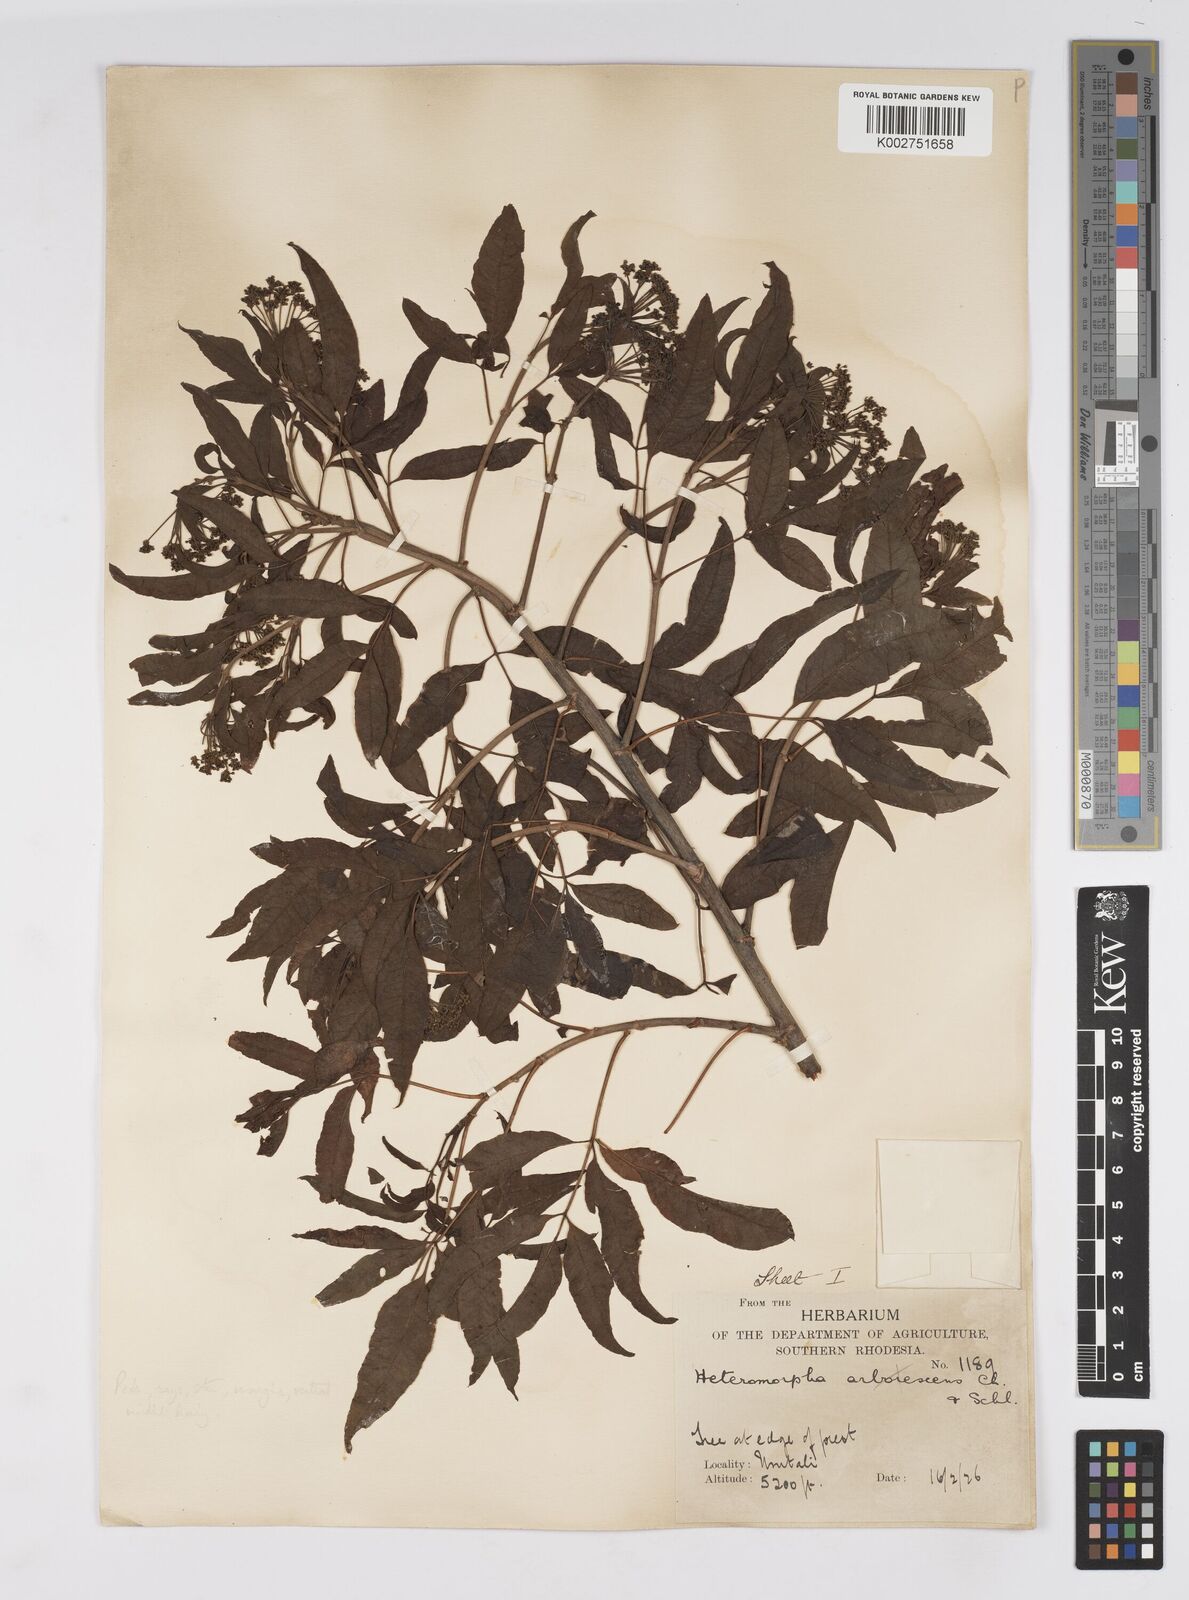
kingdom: Plantae
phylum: Tracheophyta
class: Magnoliopsida
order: Apiales
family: Apiaceae
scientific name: Apiaceae
